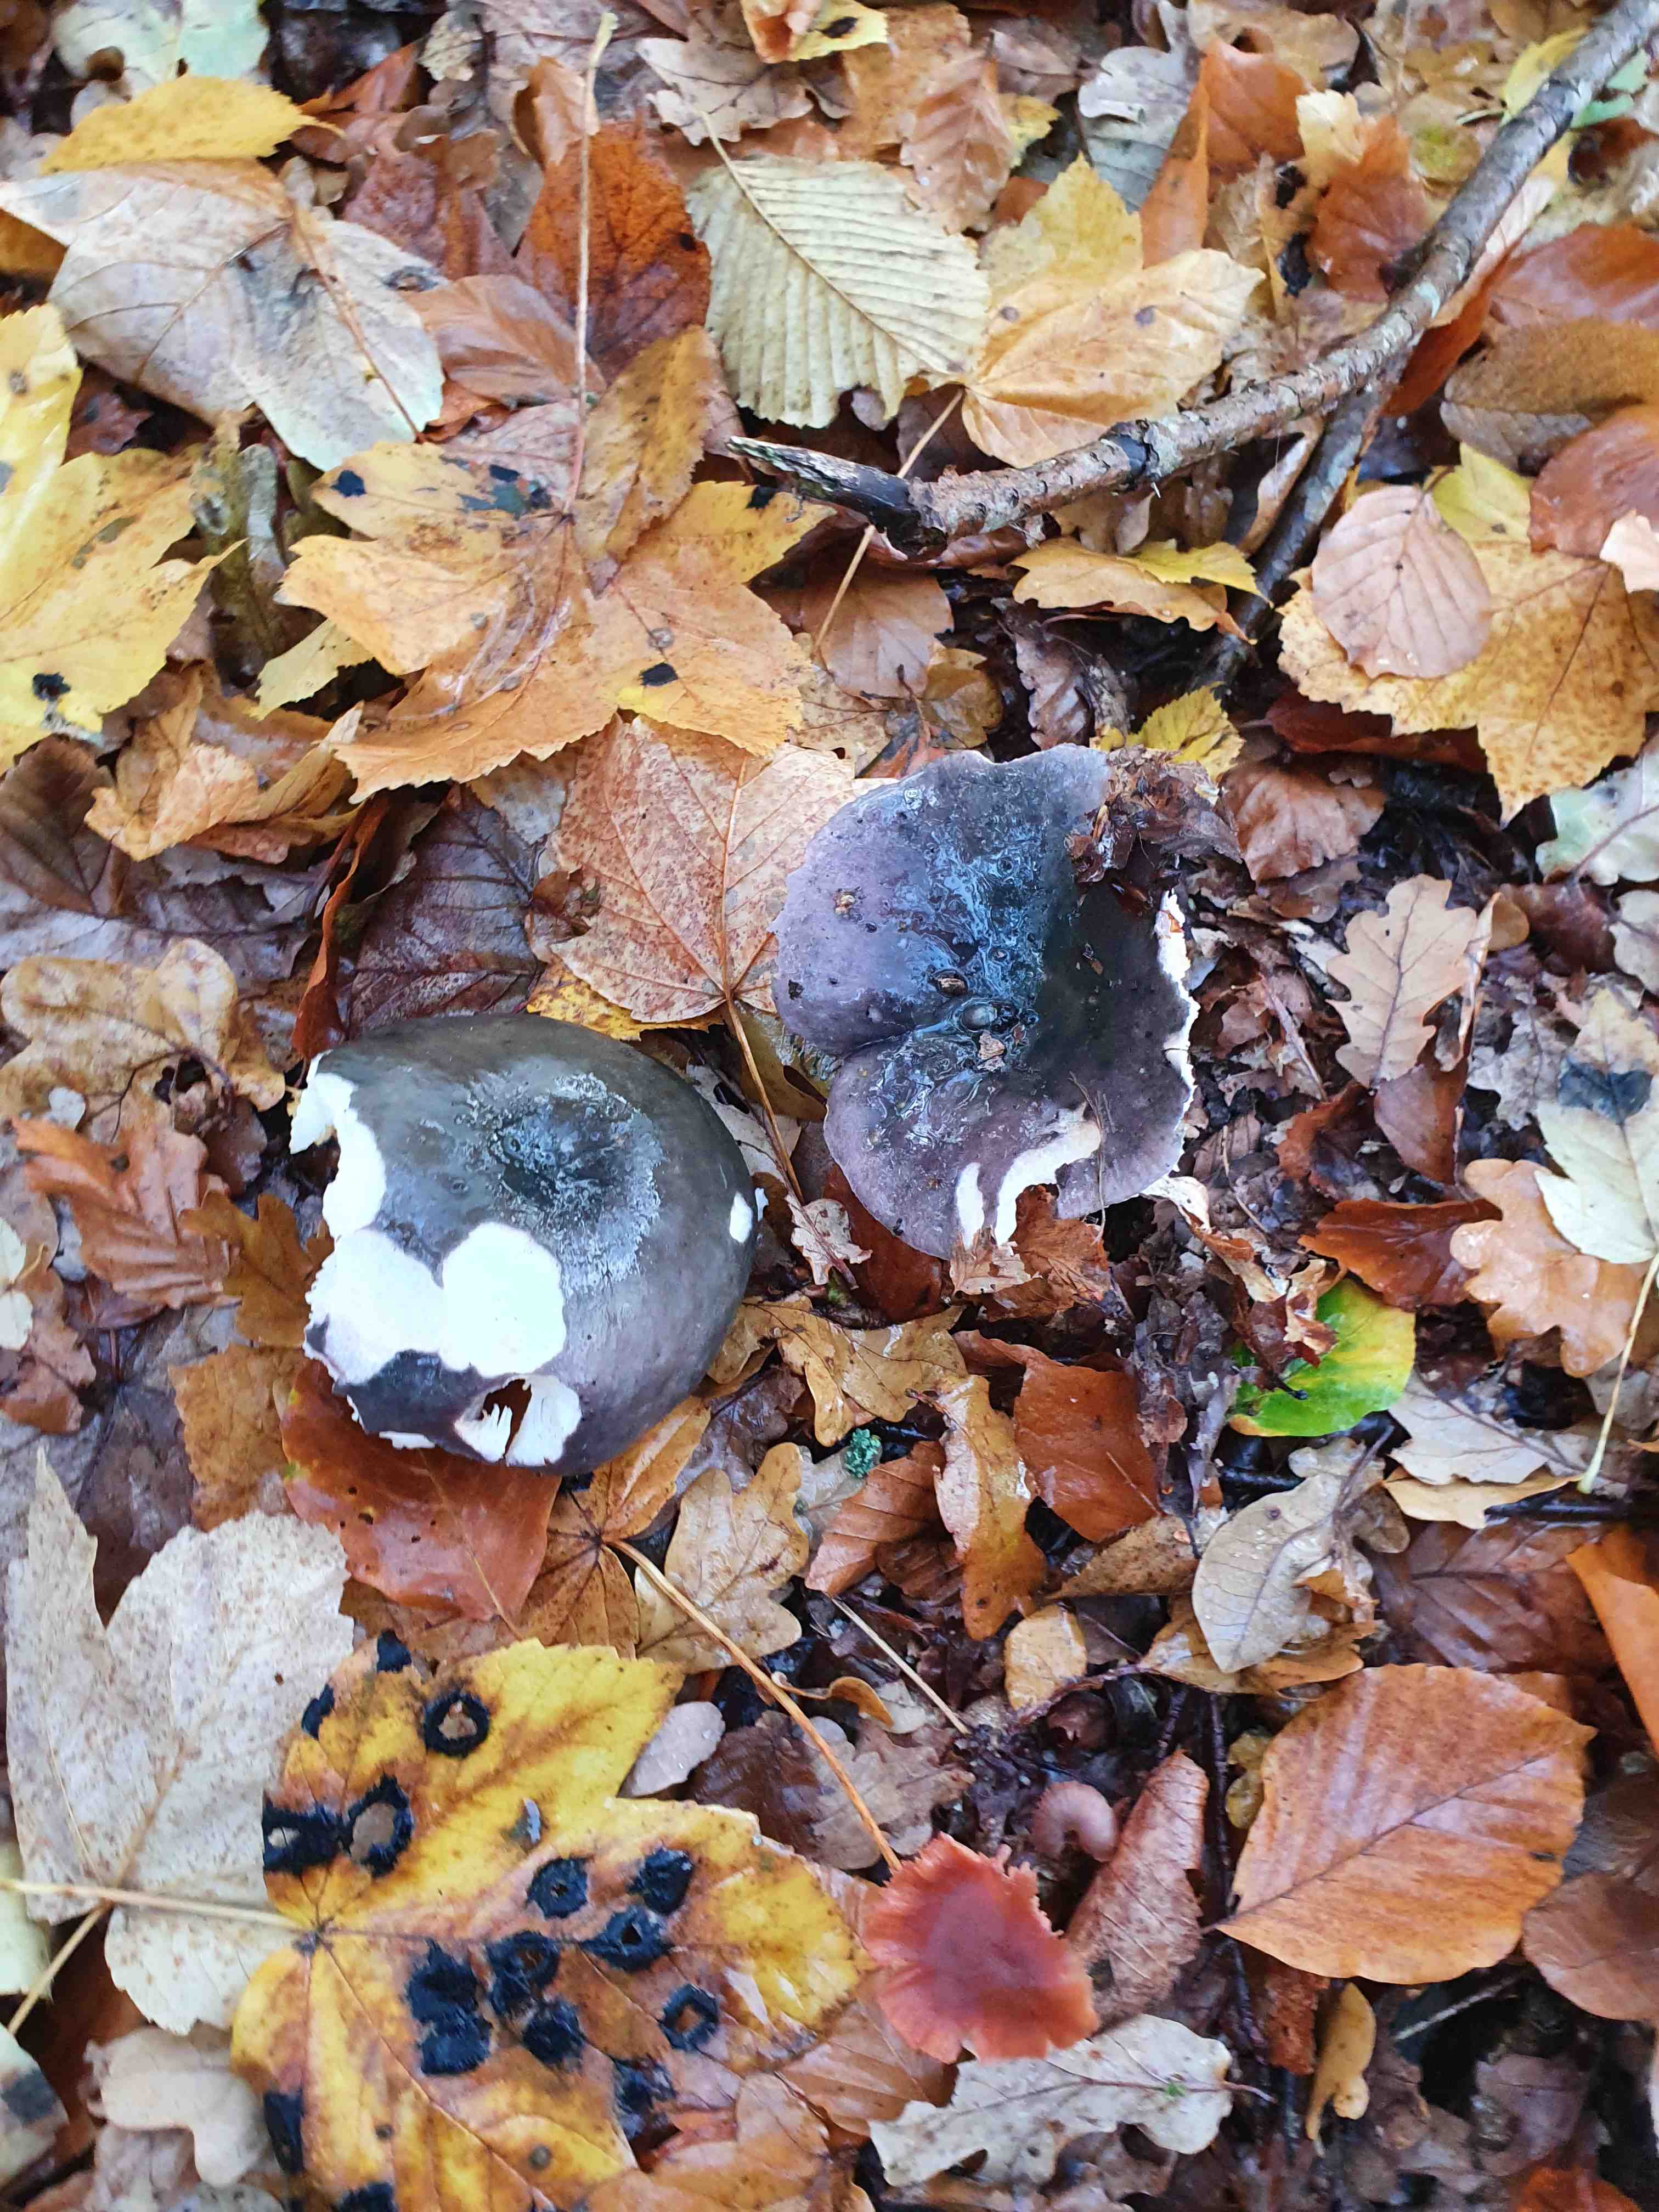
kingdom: Fungi
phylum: Basidiomycota
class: Agaricomycetes
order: Russulales
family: Russulaceae
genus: Russula
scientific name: Russula cyanoxantha
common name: broget skørhat
